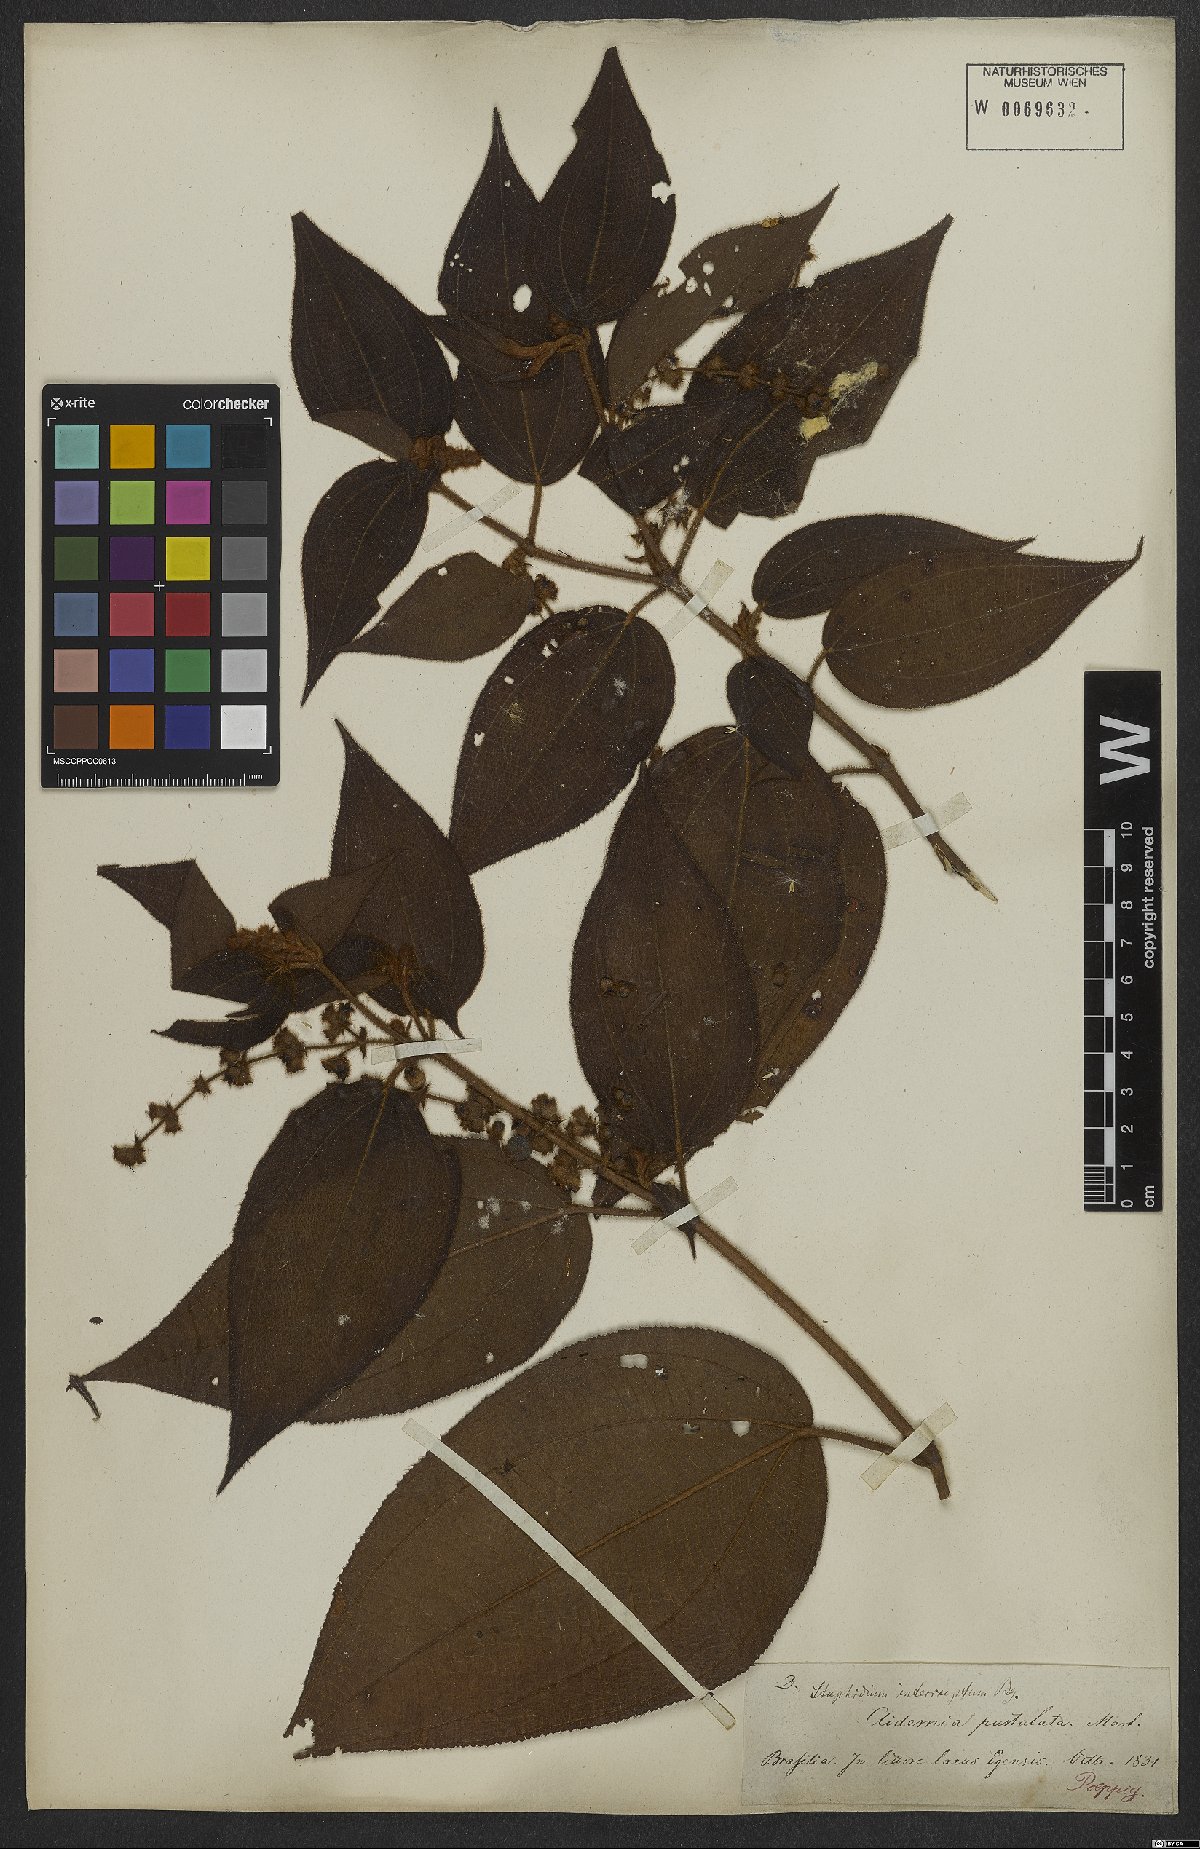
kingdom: Plantae
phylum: Tracheophyta
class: Magnoliopsida
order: Myrtales
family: Melastomataceae
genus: Miconia
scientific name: Miconia dependens
